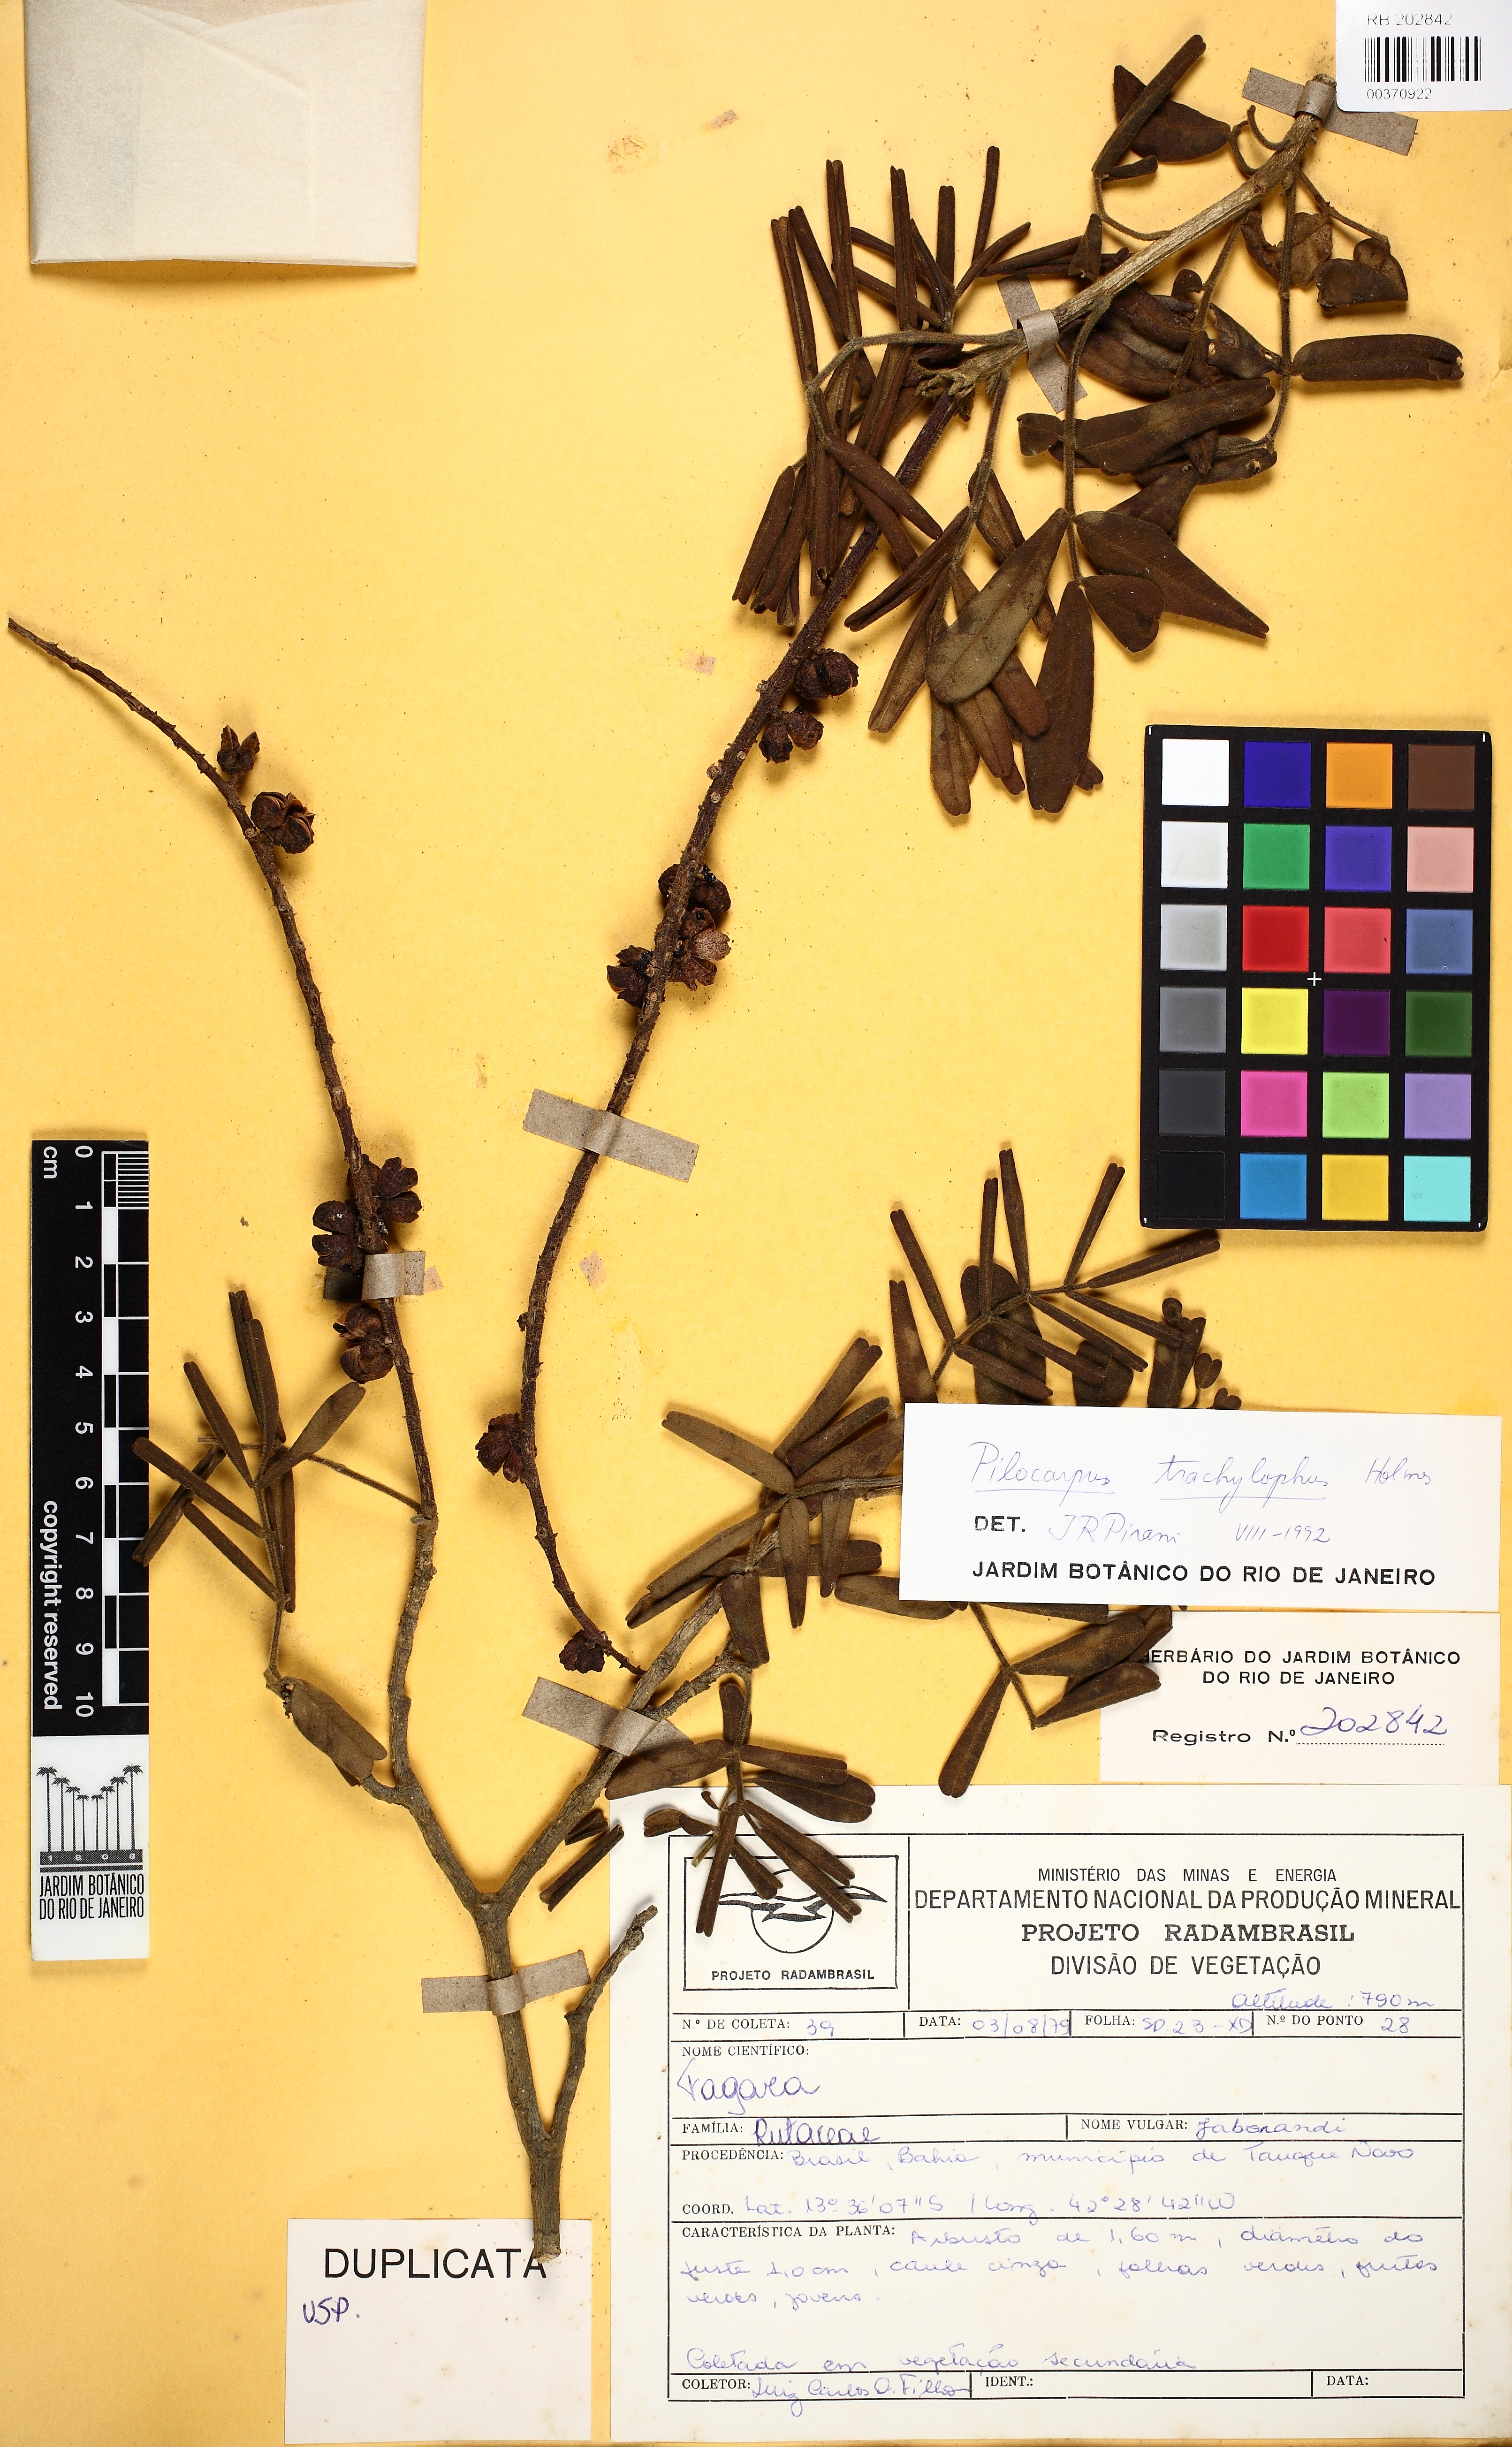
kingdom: Plantae
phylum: Tracheophyta
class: Magnoliopsida
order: Sapindales
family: Rutaceae
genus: Pilocarpus
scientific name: Pilocarpus trachylophus
